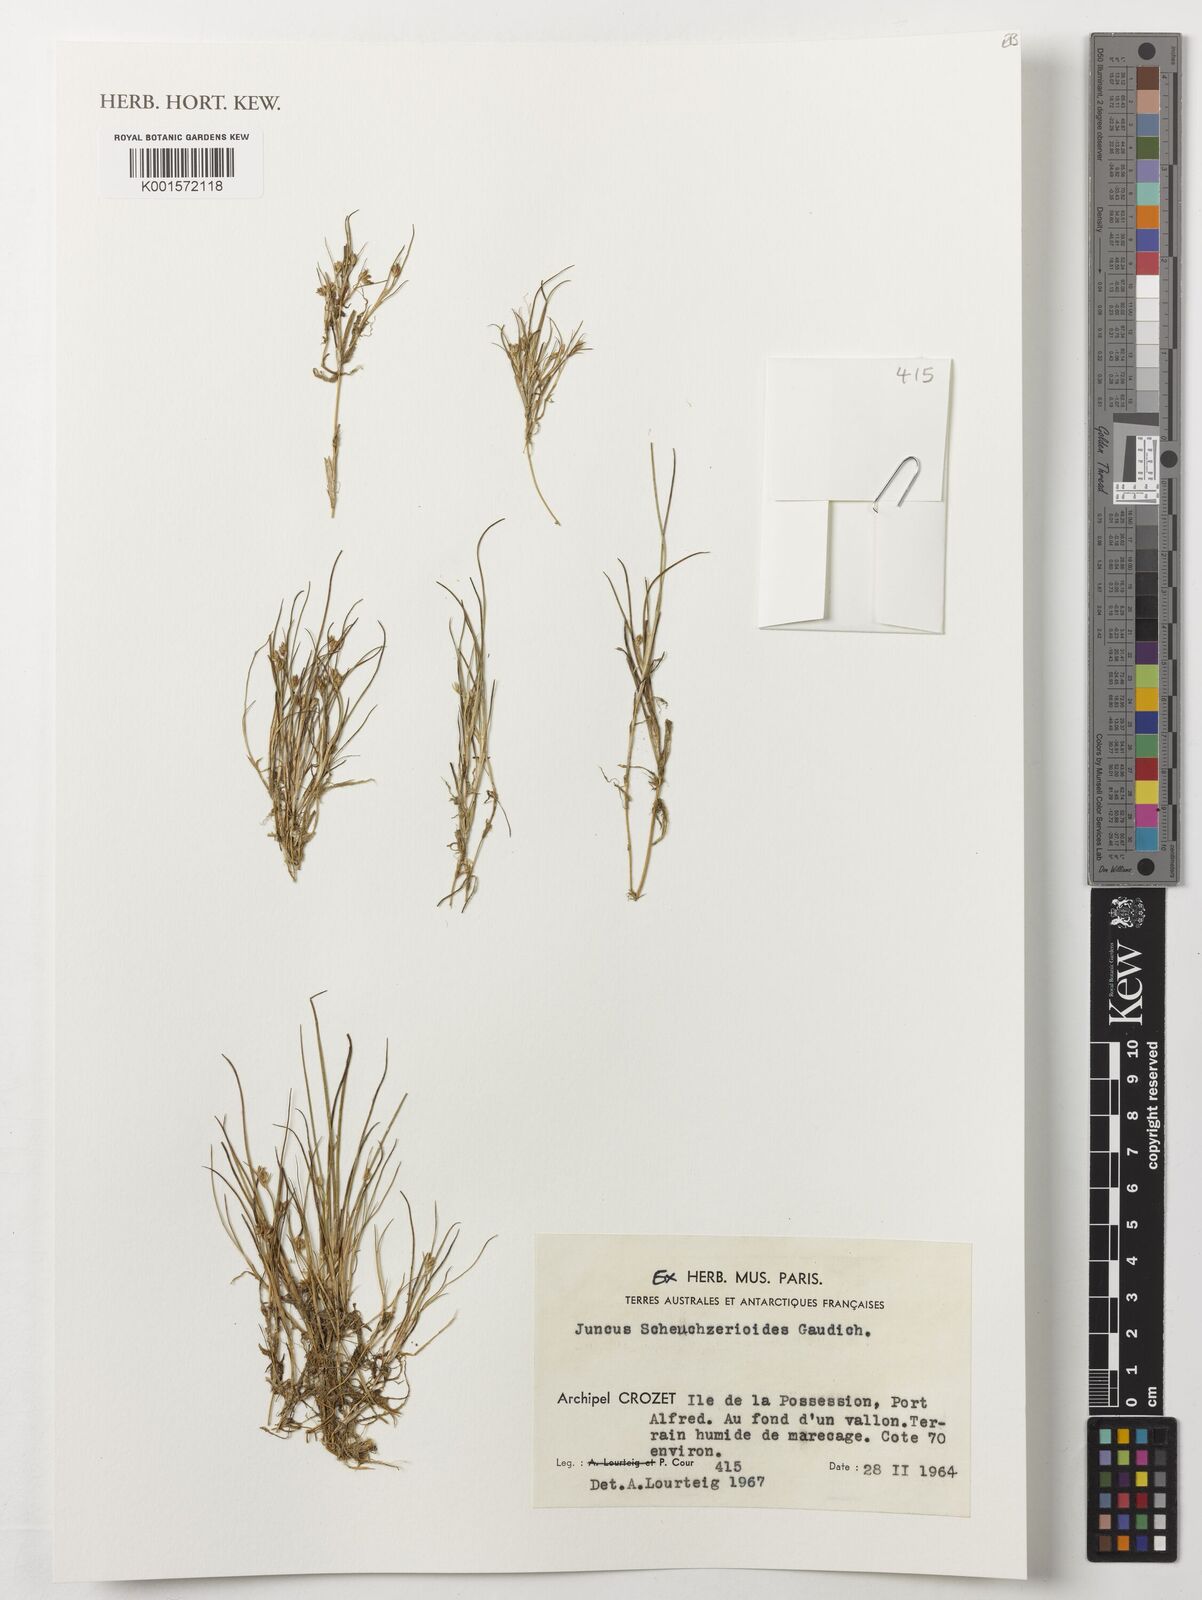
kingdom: Plantae
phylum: Tracheophyta
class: Liliopsida
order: Poales
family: Juncaceae
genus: Juncus
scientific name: Juncus scheuchzerioides
